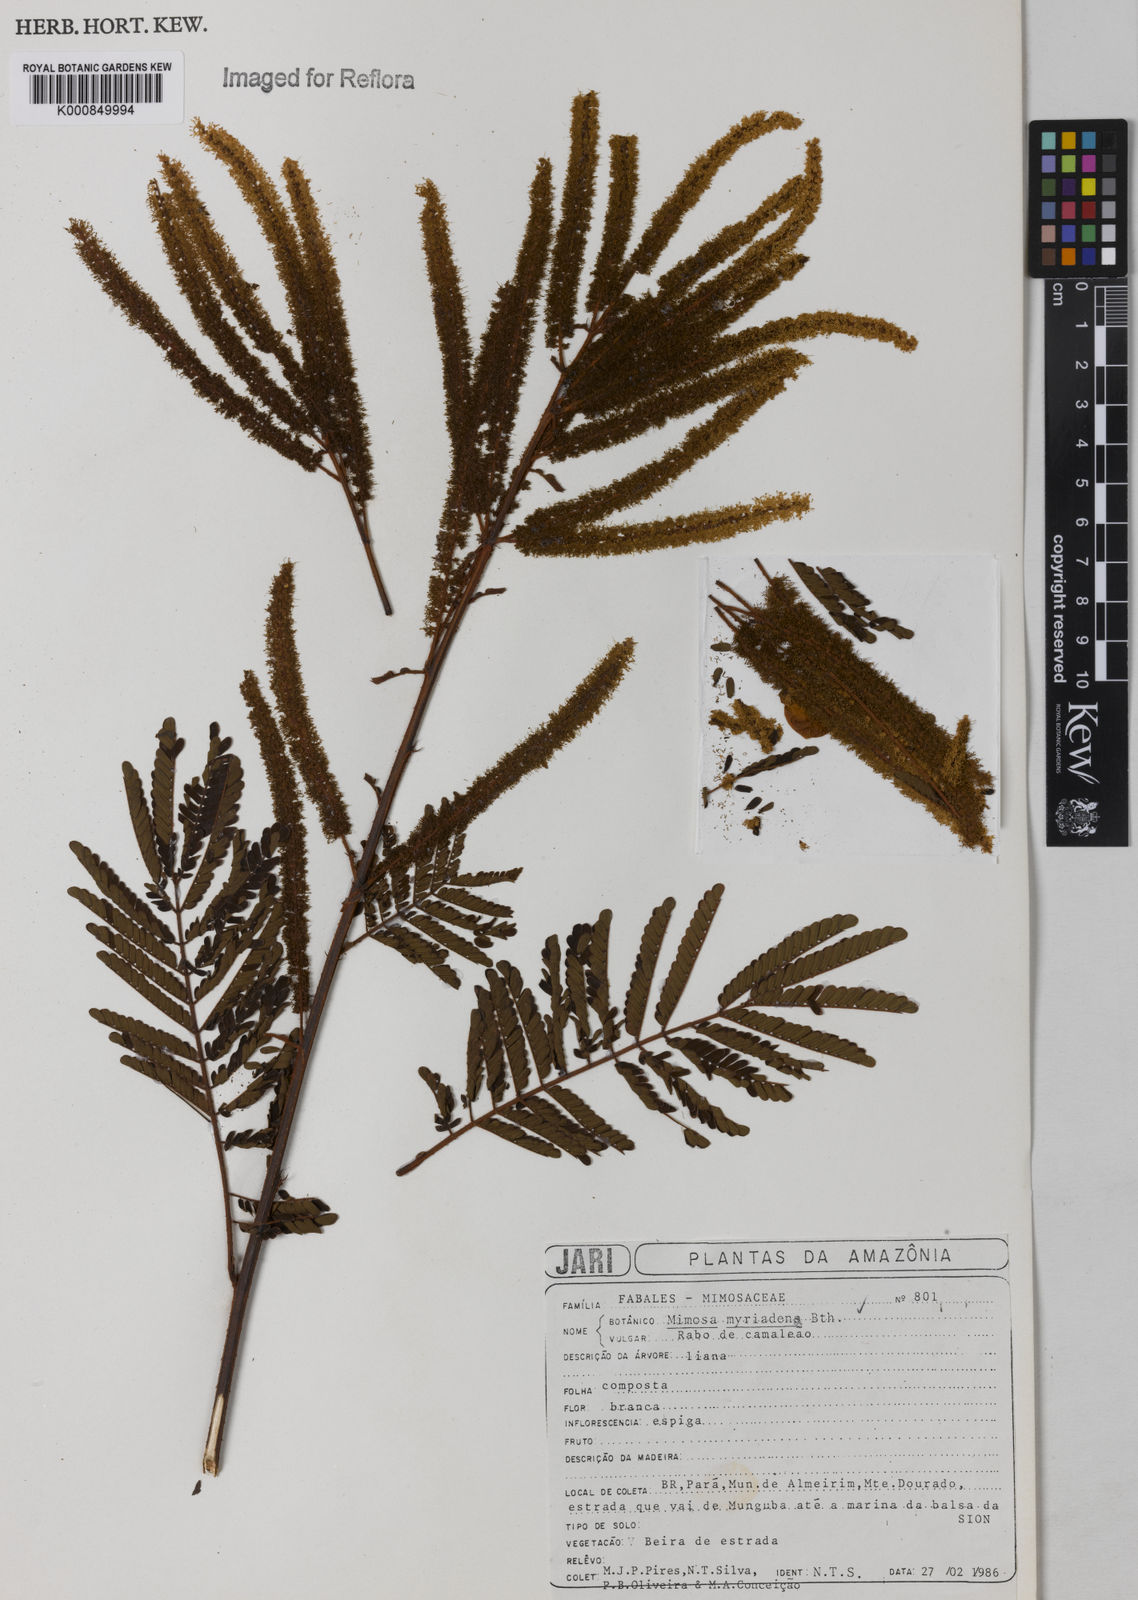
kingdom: Plantae
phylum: Tracheophyta
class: Magnoliopsida
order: Fabales
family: Fabaceae
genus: Mimosa
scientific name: Mimosa myriadenia
